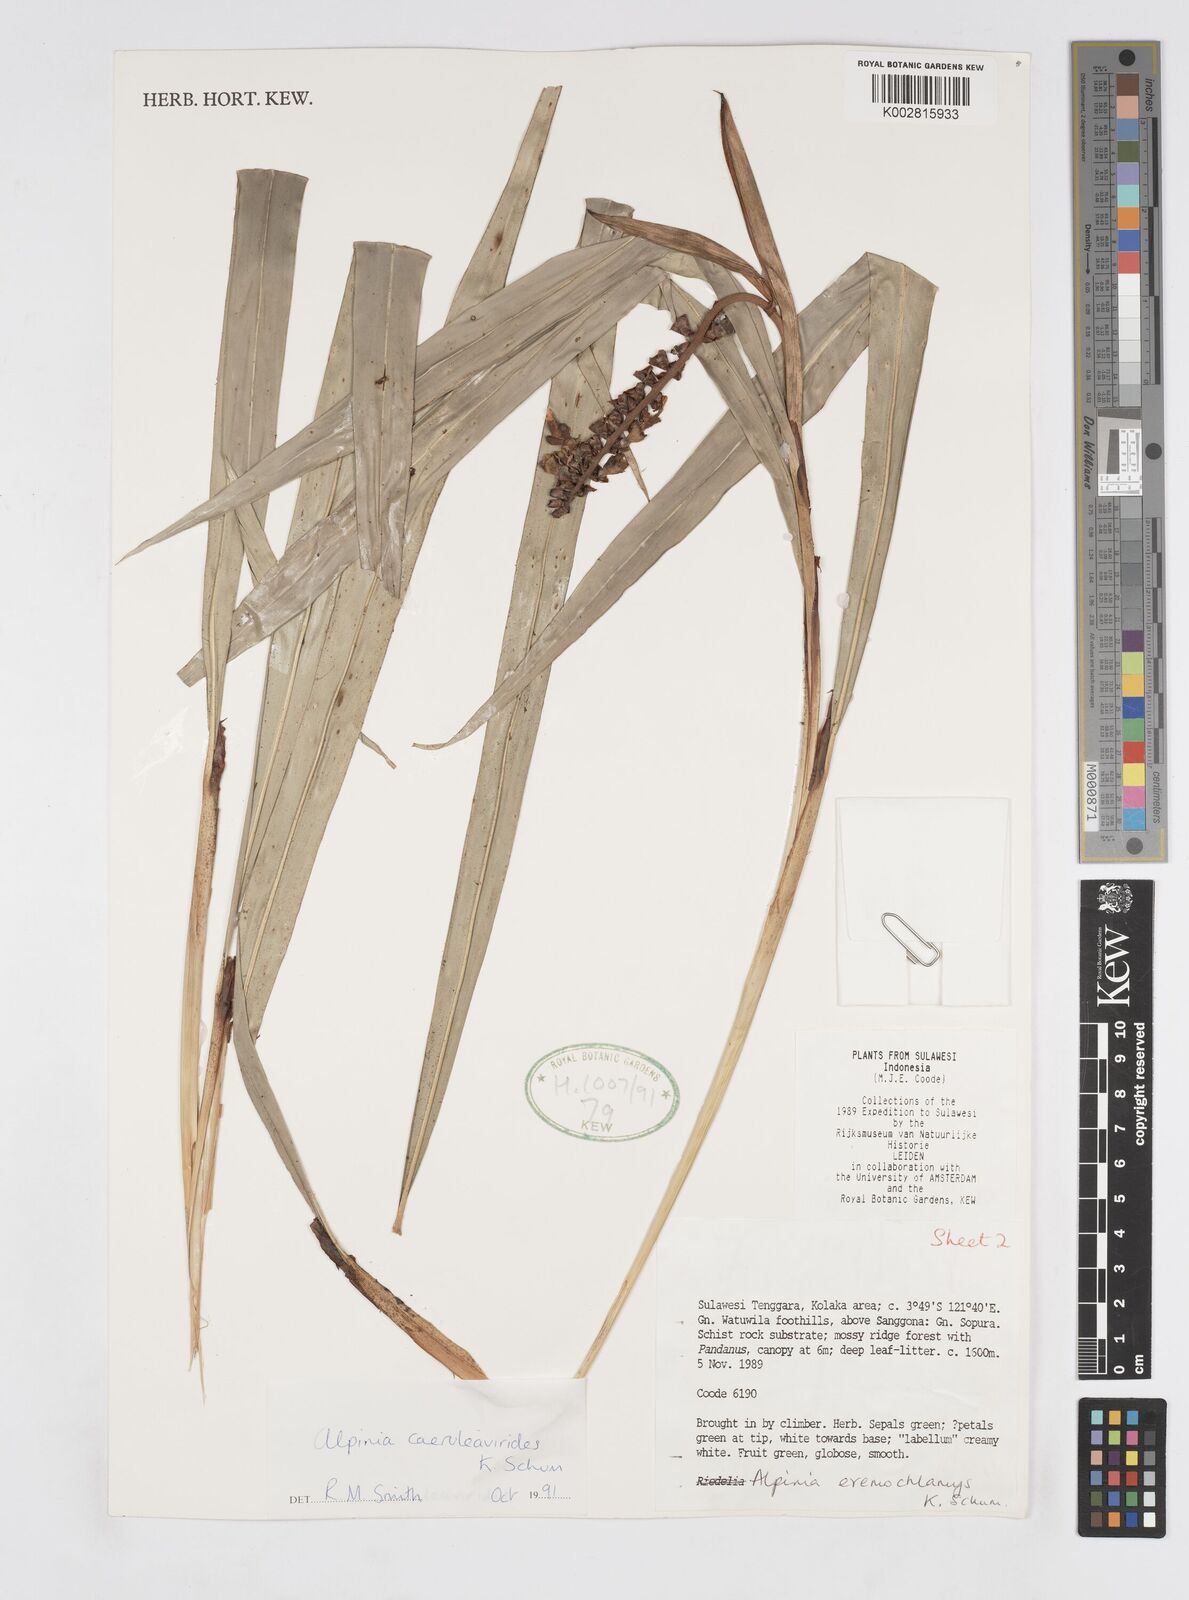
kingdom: Plantae
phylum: Tracheophyta
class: Liliopsida
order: Zingiberales
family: Zingiberaceae
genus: Alpinia
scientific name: Alpinia
